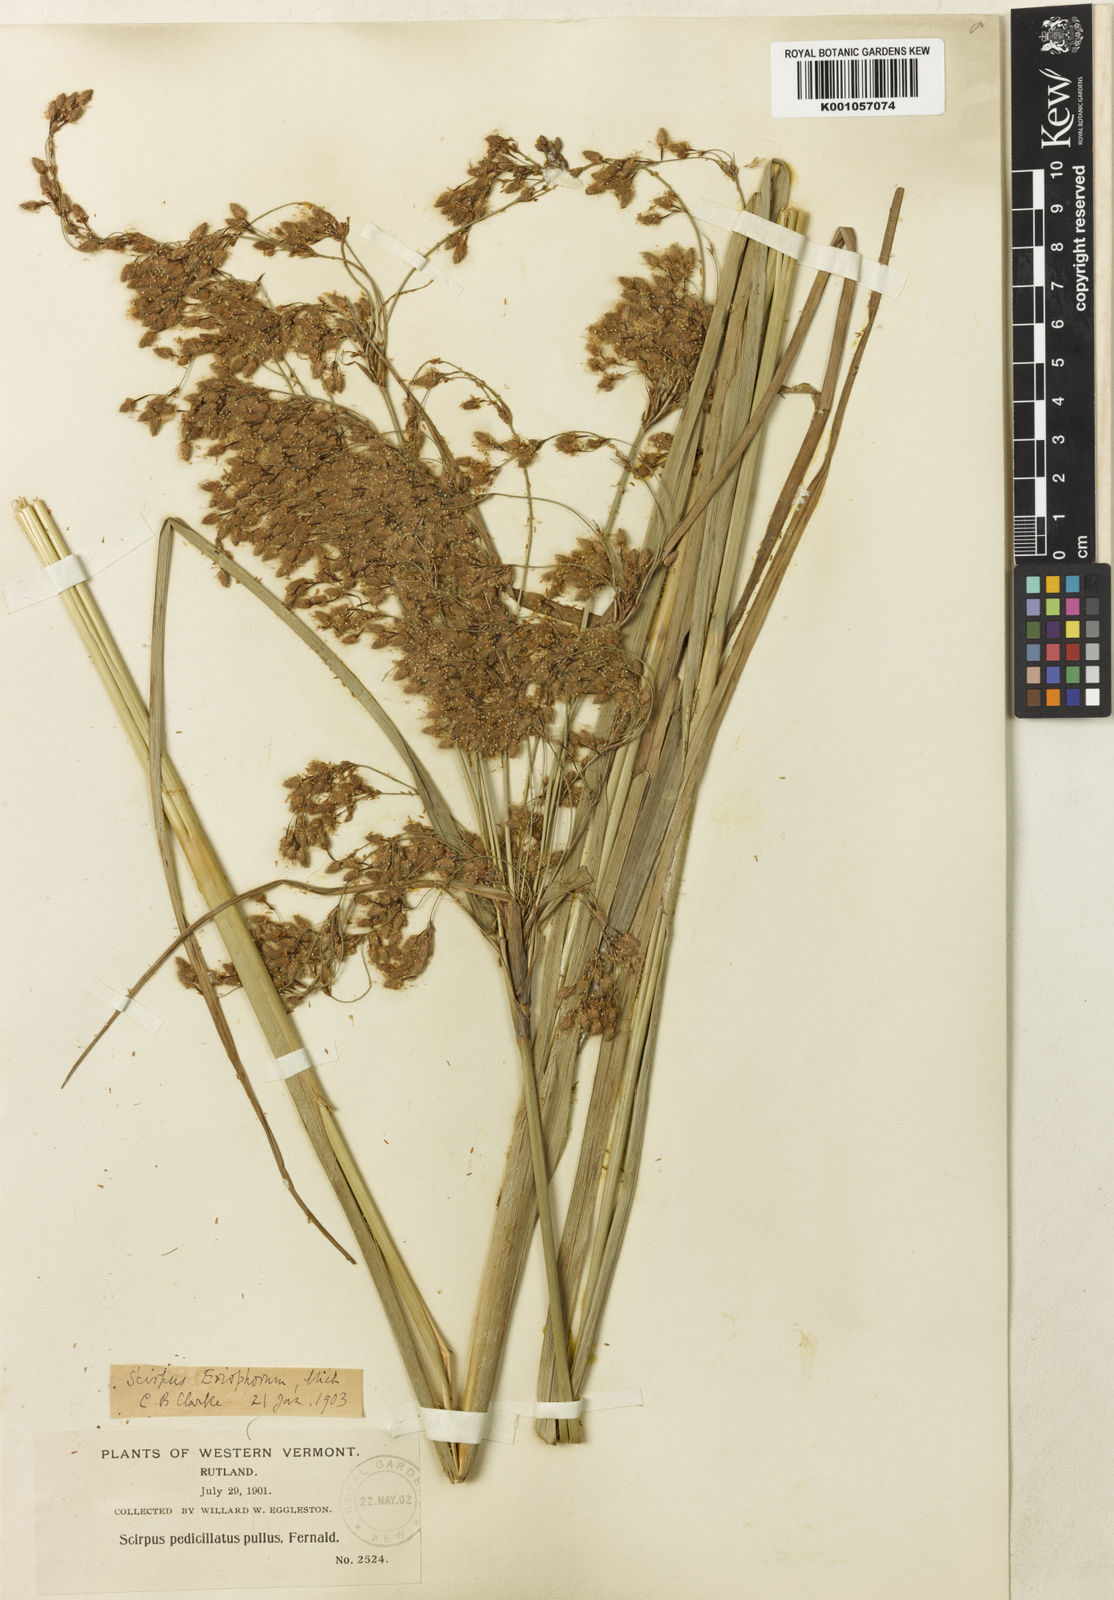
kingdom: Plantae
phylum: Tracheophyta
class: Liliopsida
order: Poales
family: Cyperaceae
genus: Scirpus
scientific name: Scirpus cyperinus
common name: Black-sheathed bulrush
